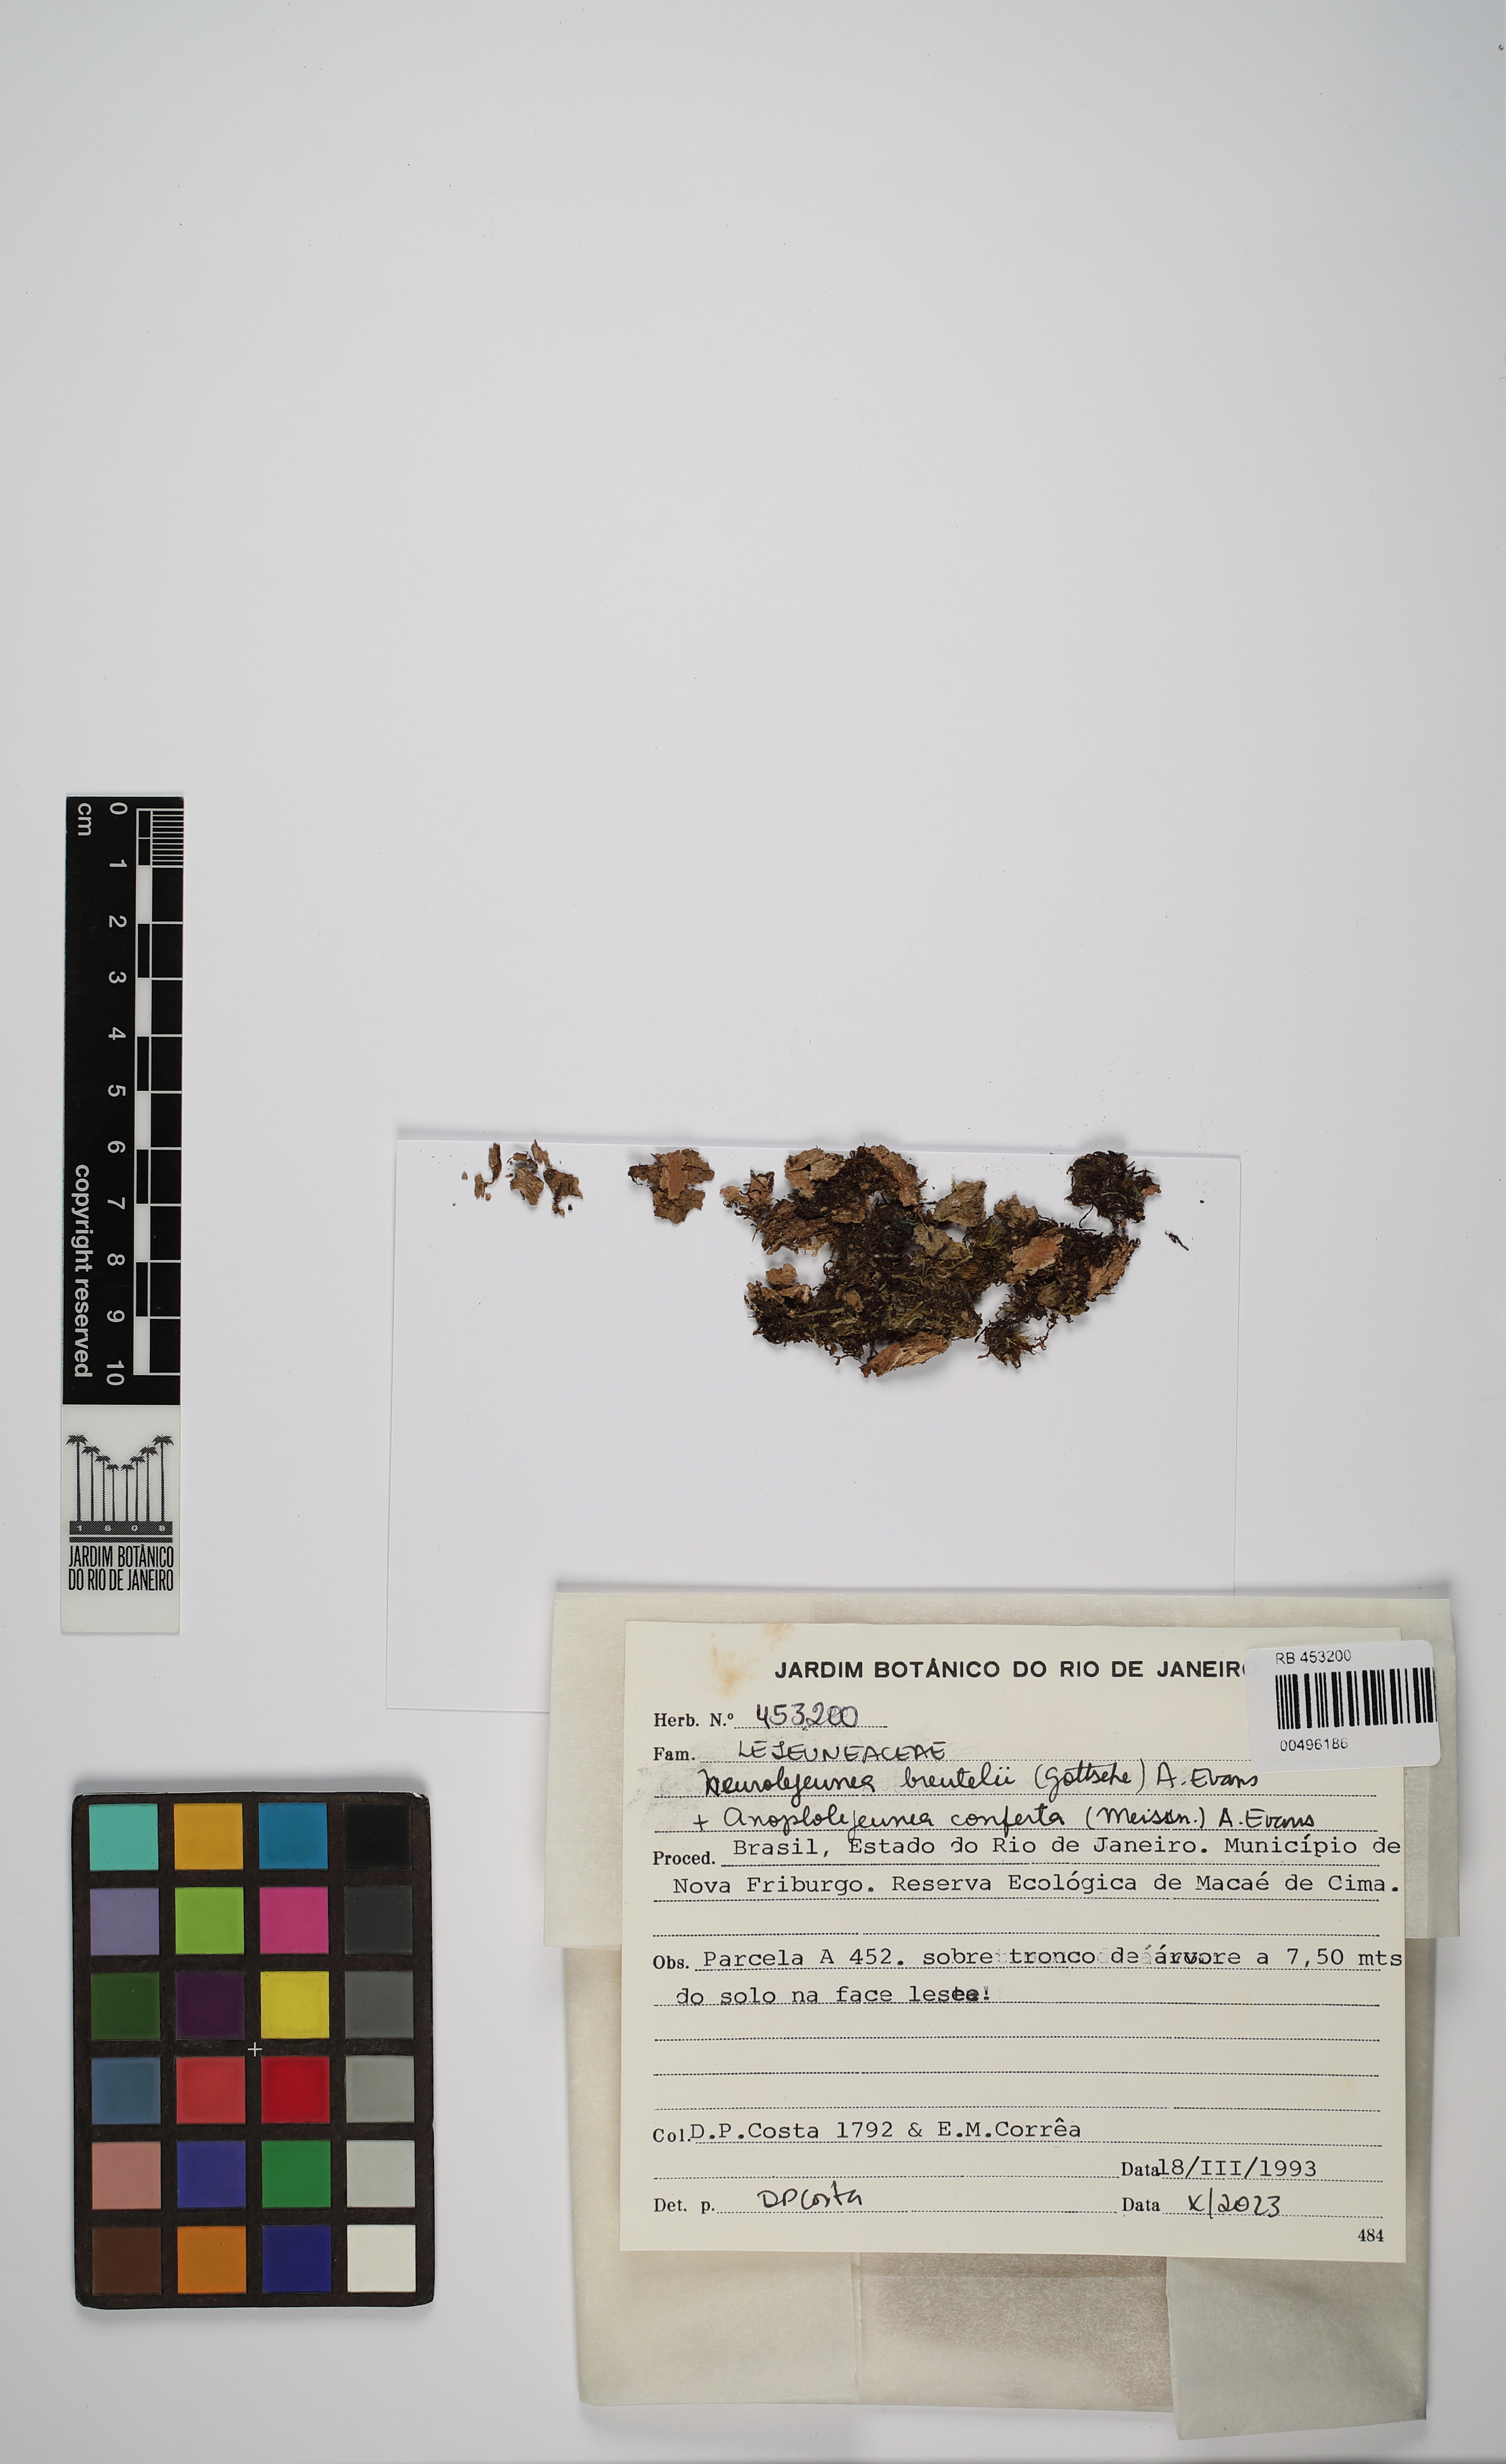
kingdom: Plantae
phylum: Marchantiophyta
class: Jungermanniopsida
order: Porellales
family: Lejeuneaceae
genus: Neurolejeunea
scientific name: Neurolejeunea breutelii
